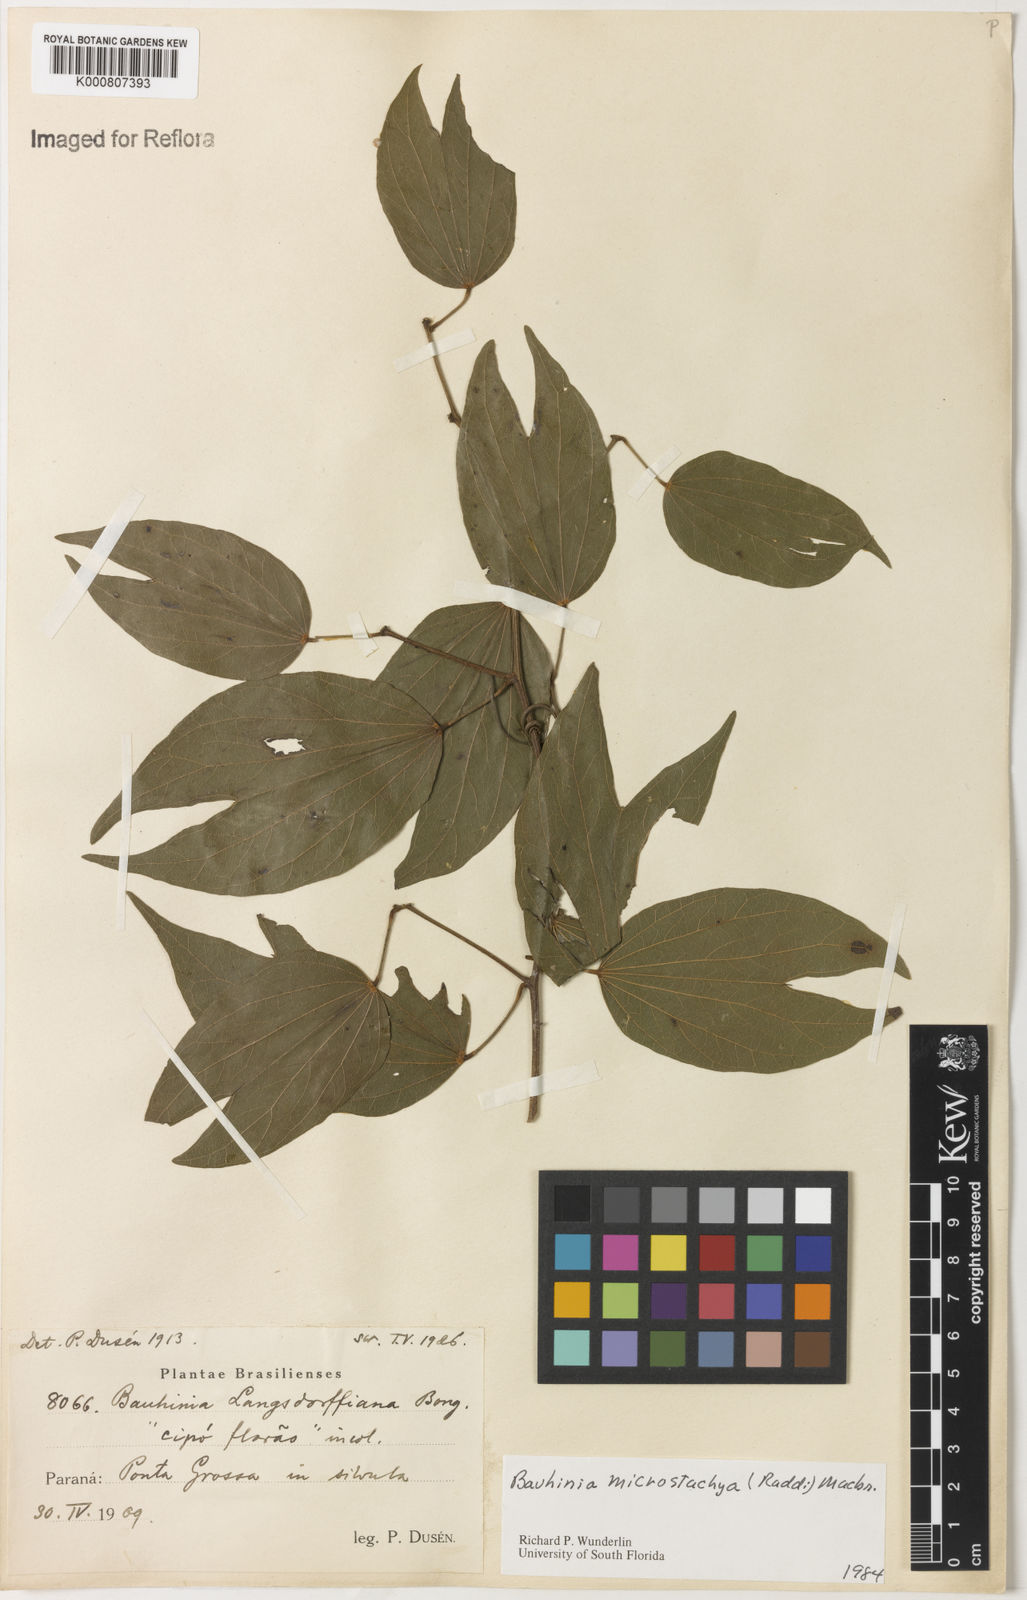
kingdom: Plantae
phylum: Tracheophyta
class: Magnoliopsida
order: Fabales
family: Fabaceae
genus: Schnella
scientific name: Schnella microstachya
